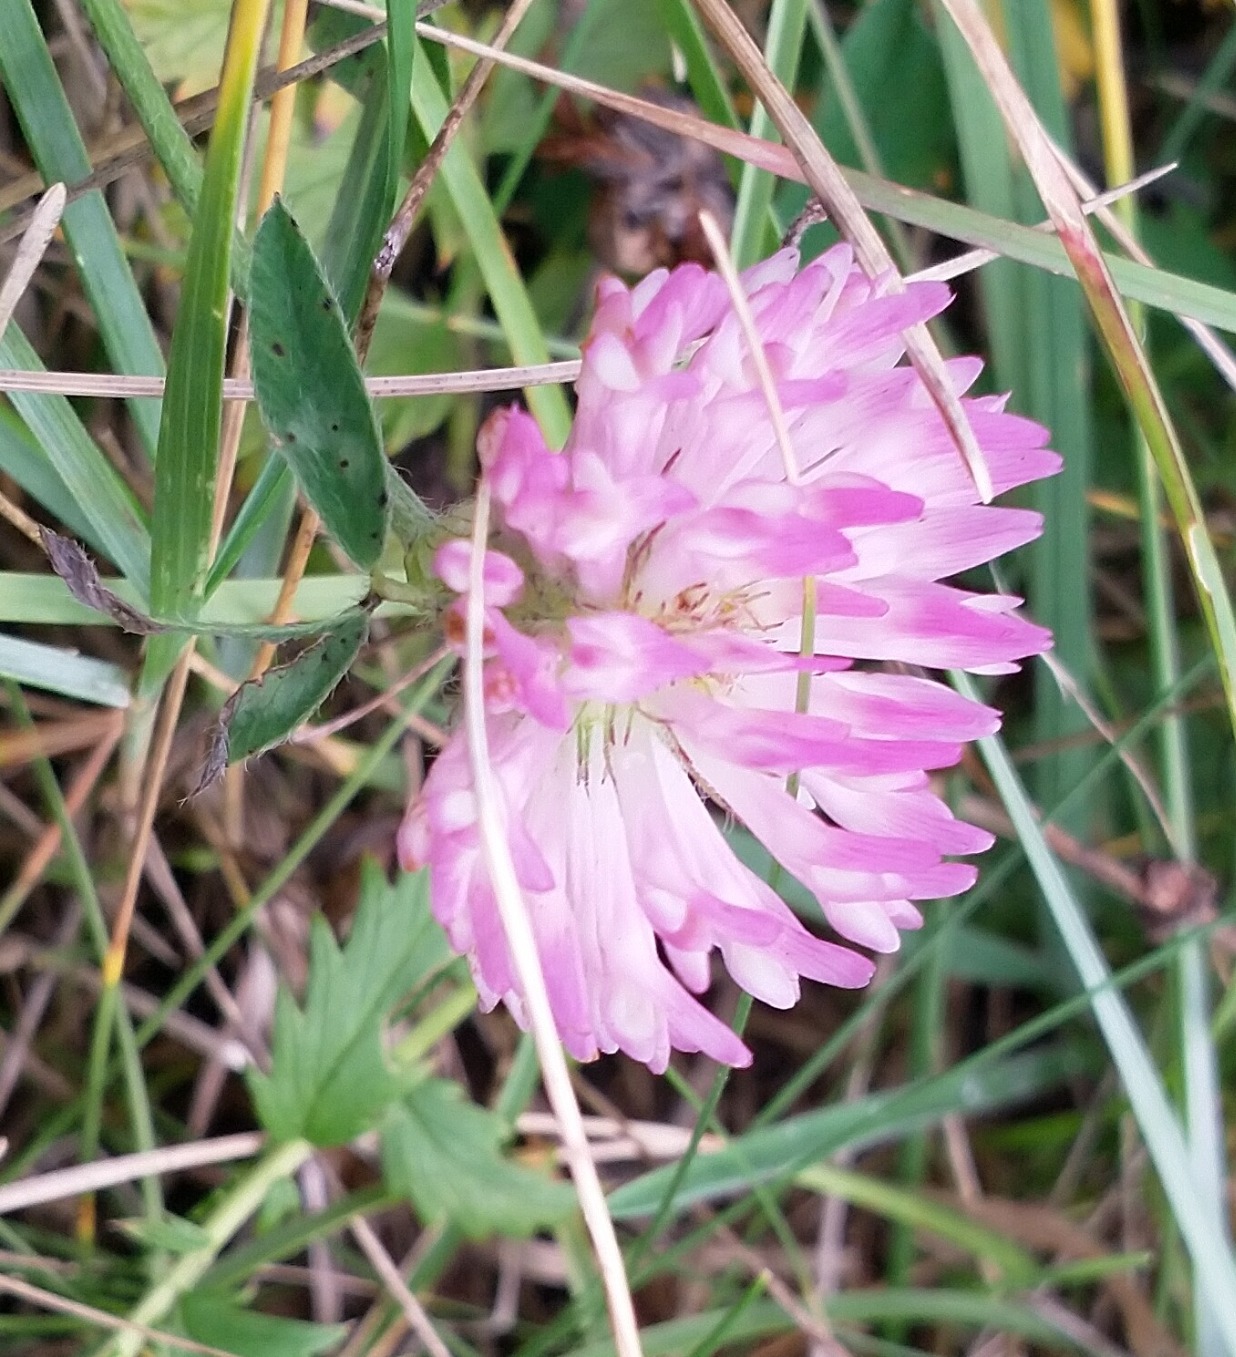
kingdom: Plantae
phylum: Tracheophyta
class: Magnoliopsida
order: Fabales
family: Fabaceae
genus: Trifolium
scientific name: Trifolium pratense
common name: Rød-kløver
